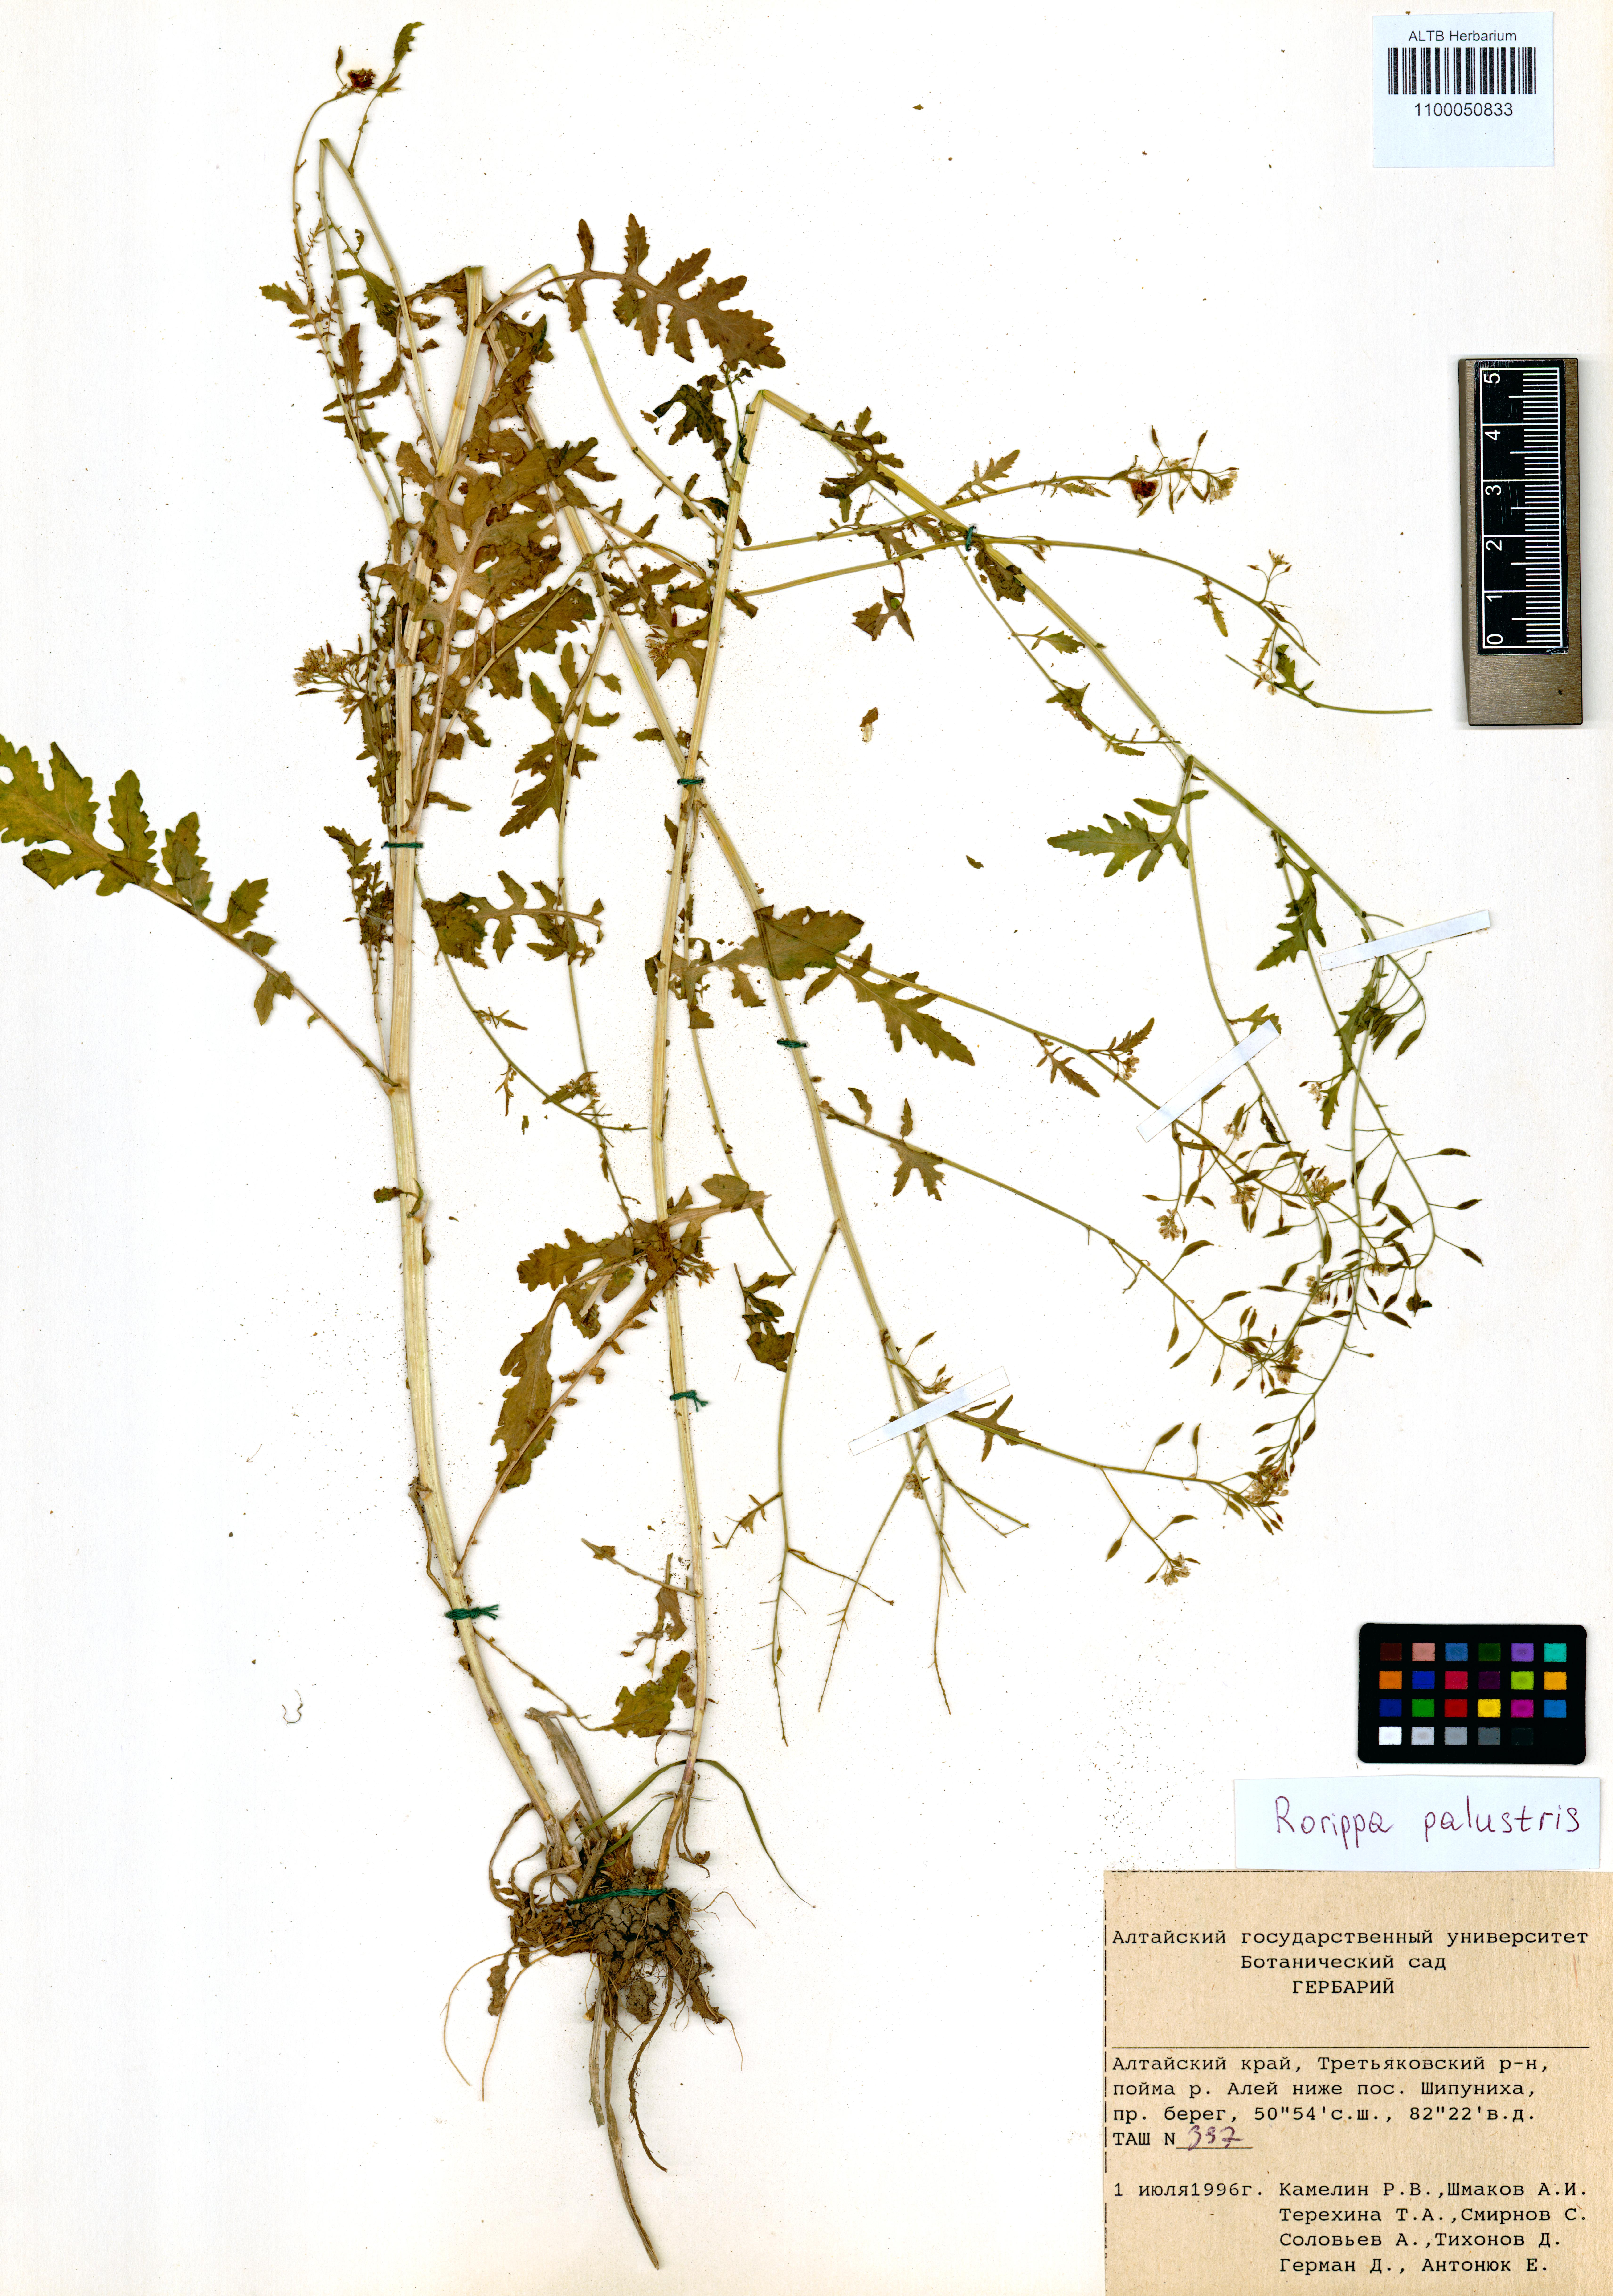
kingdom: Plantae
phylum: Tracheophyta
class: Magnoliopsida
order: Brassicales
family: Brassicaceae
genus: Rorippa
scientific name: Rorippa palustris
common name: Marsh yellow-cress
